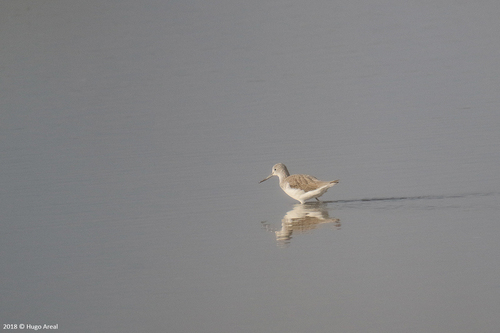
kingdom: Animalia
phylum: Chordata
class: Aves
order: Charadriiformes
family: Scolopacidae
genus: Tringa
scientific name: Tringa nebularia
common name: Common greenshank
